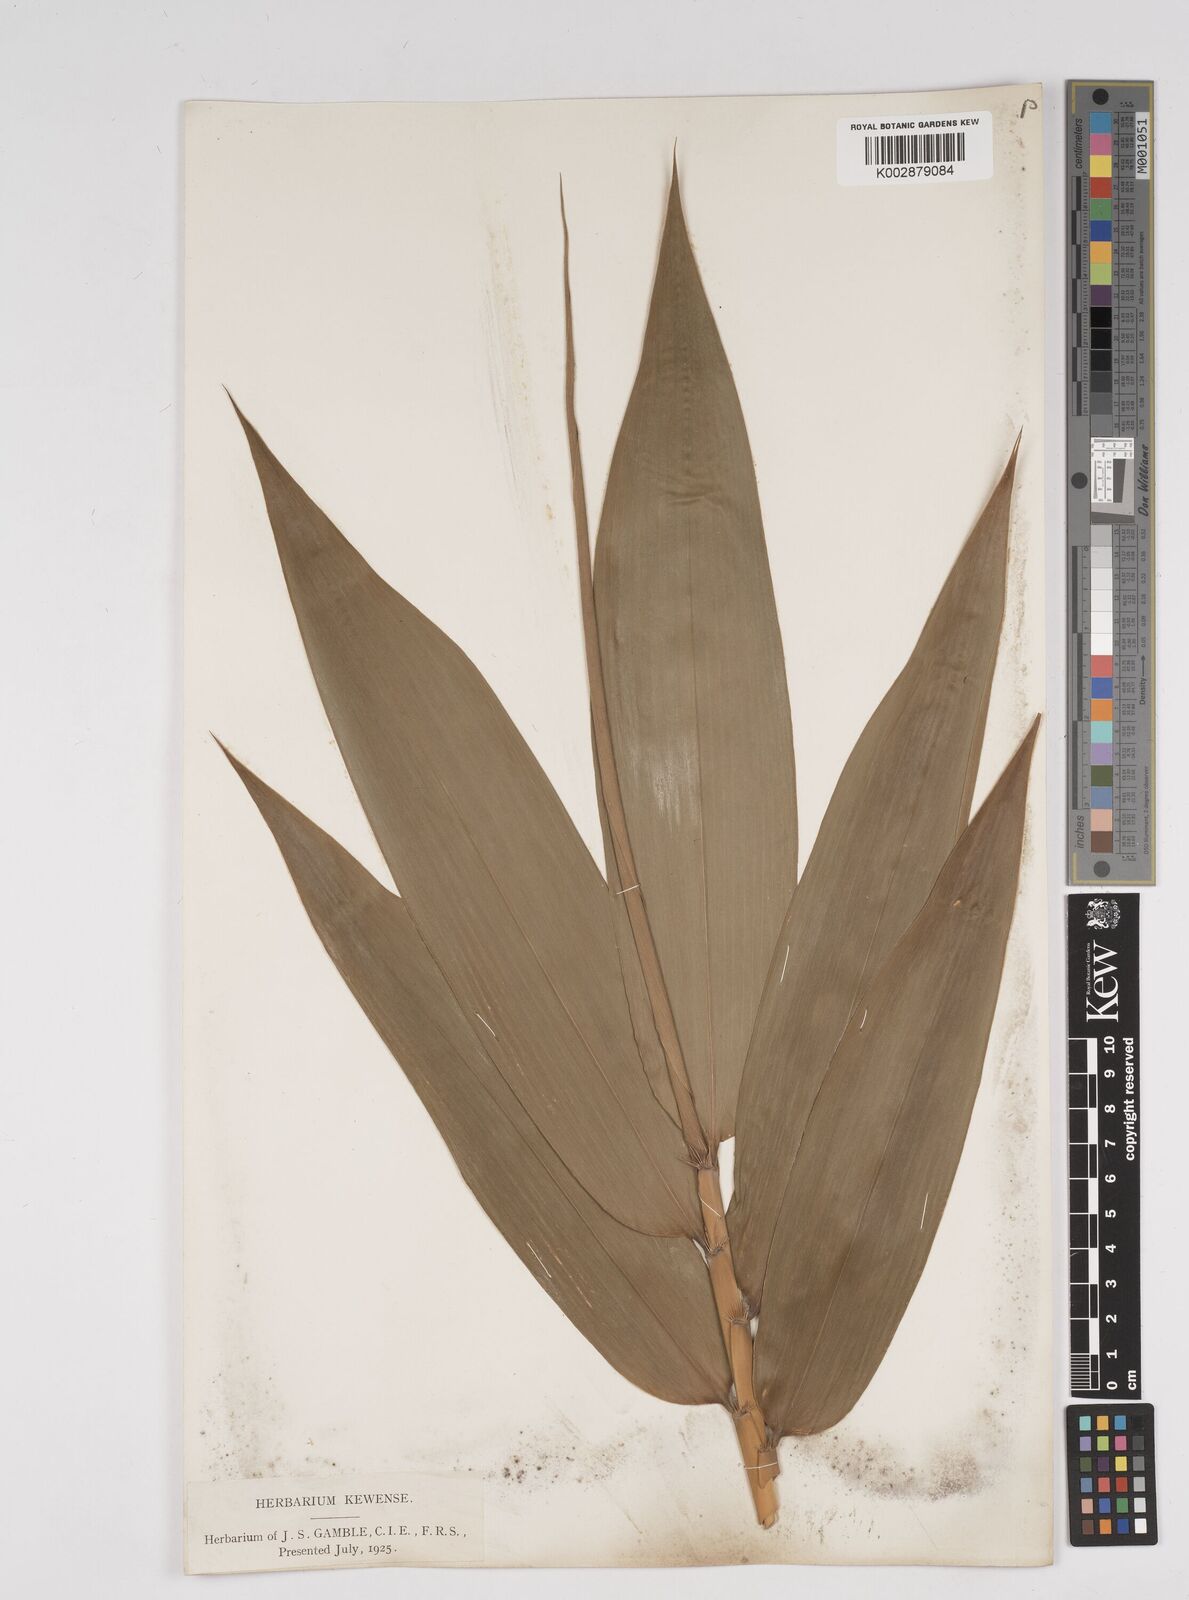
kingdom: Plantae
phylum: Tracheophyta
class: Liliopsida
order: Poales
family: Poaceae
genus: Dendrocalamus
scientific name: Dendrocalamus sikkimensis
